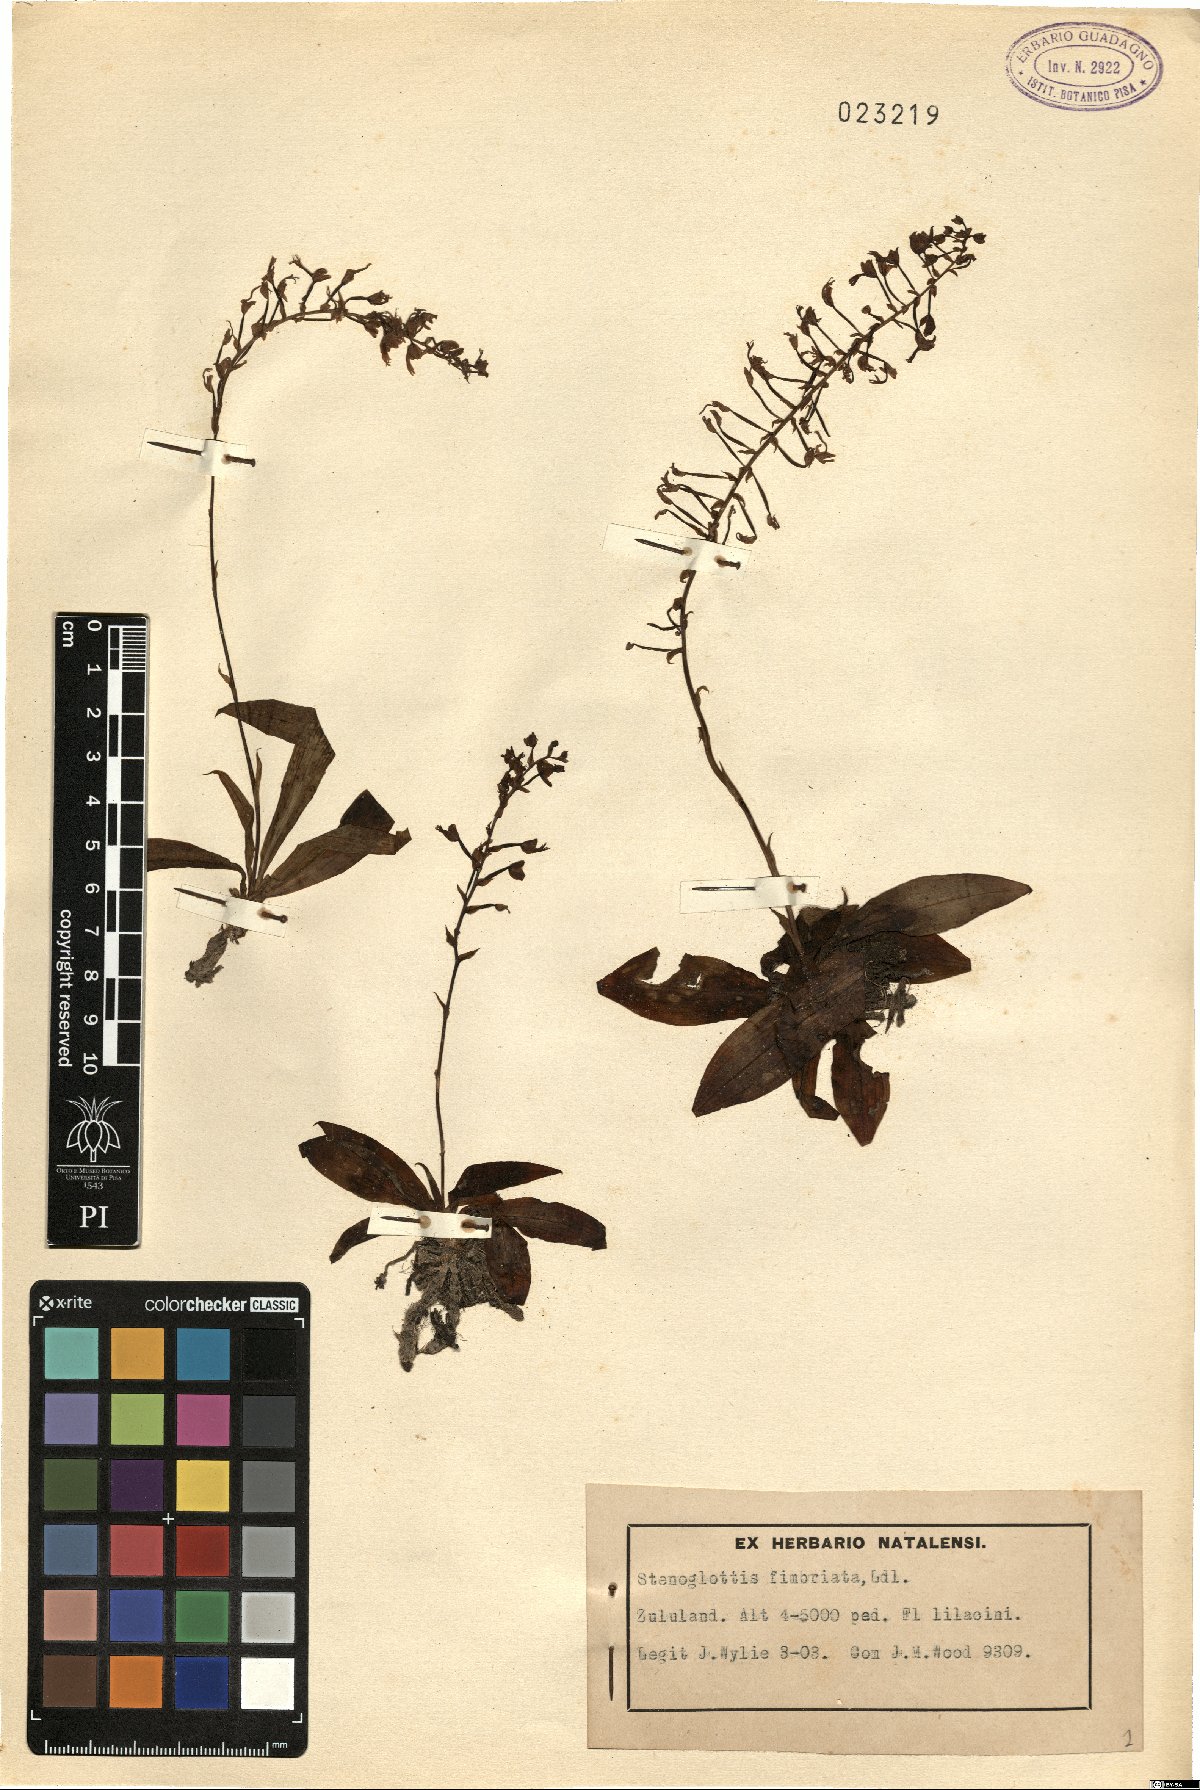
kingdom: Plantae
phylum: Tracheophyta
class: Liliopsida
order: Asparagales
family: Orchidaceae
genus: Stenoglottis
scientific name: Stenoglottis fimbriata
